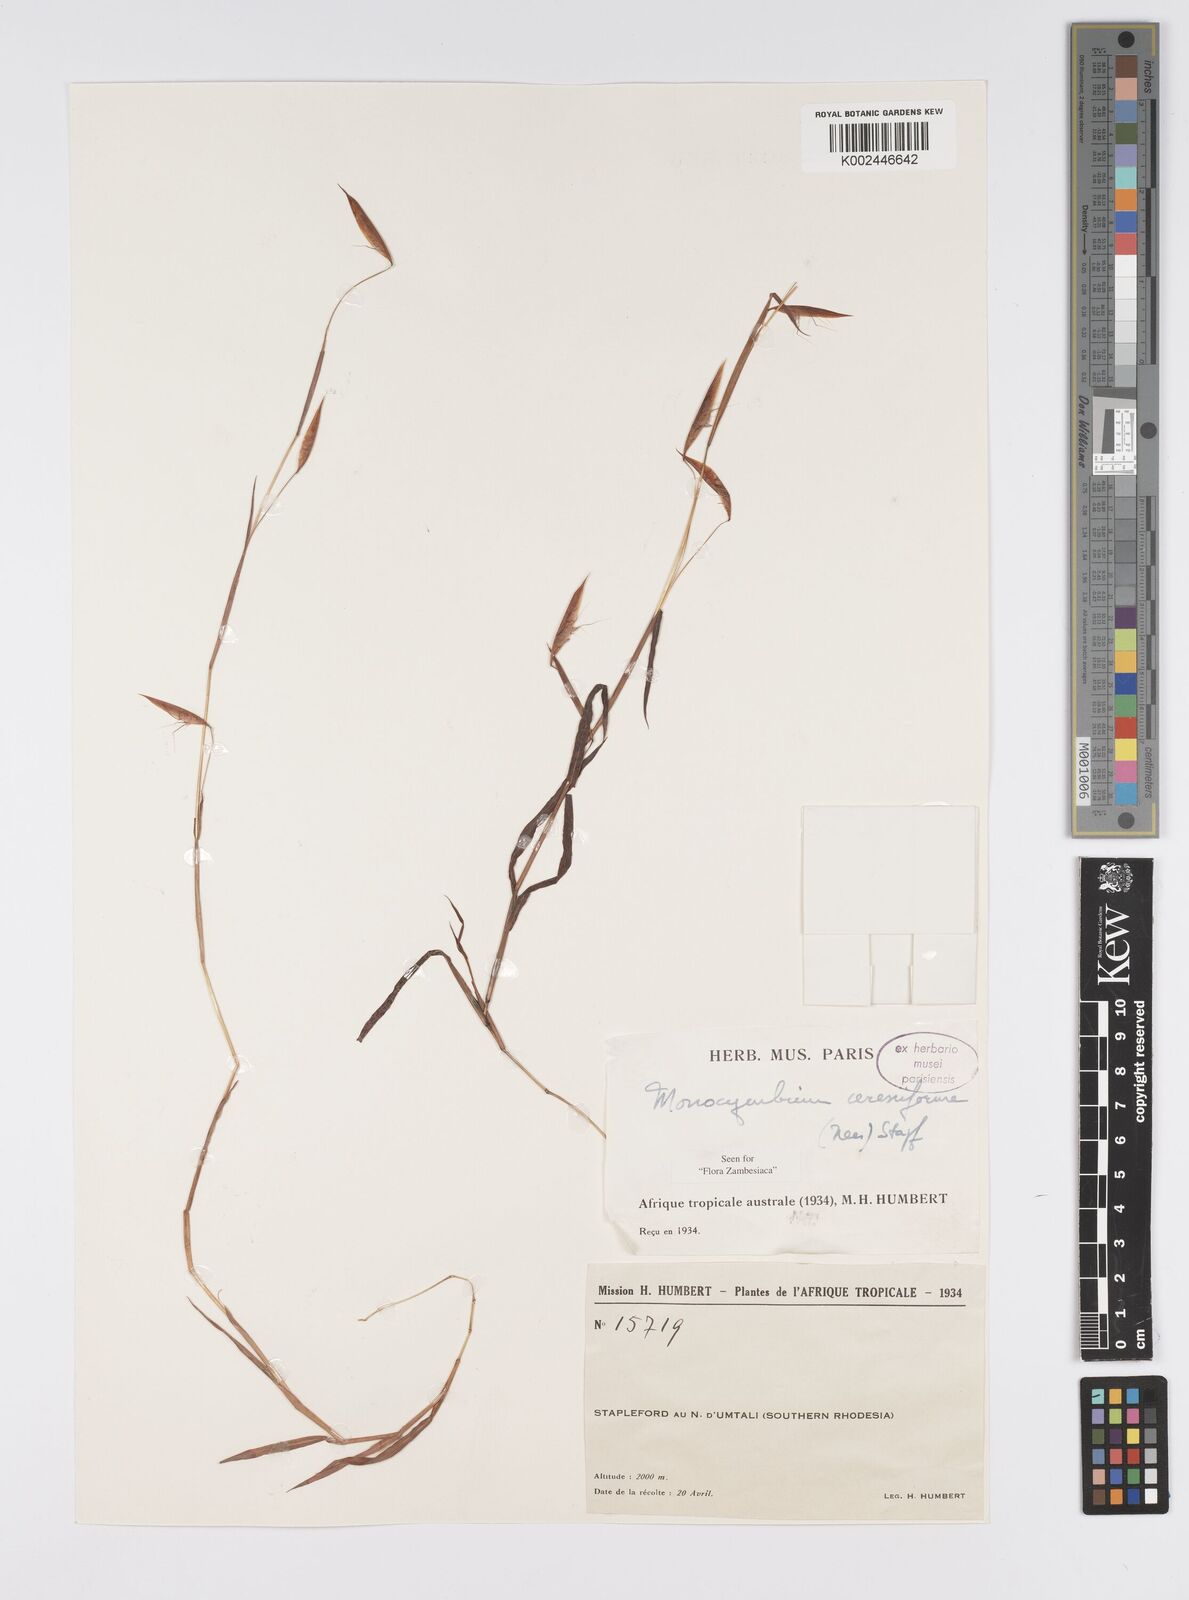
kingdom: Plantae
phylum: Tracheophyta
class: Liliopsida
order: Poales
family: Poaceae
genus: Monocymbium
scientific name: Monocymbium ceresiiforme
